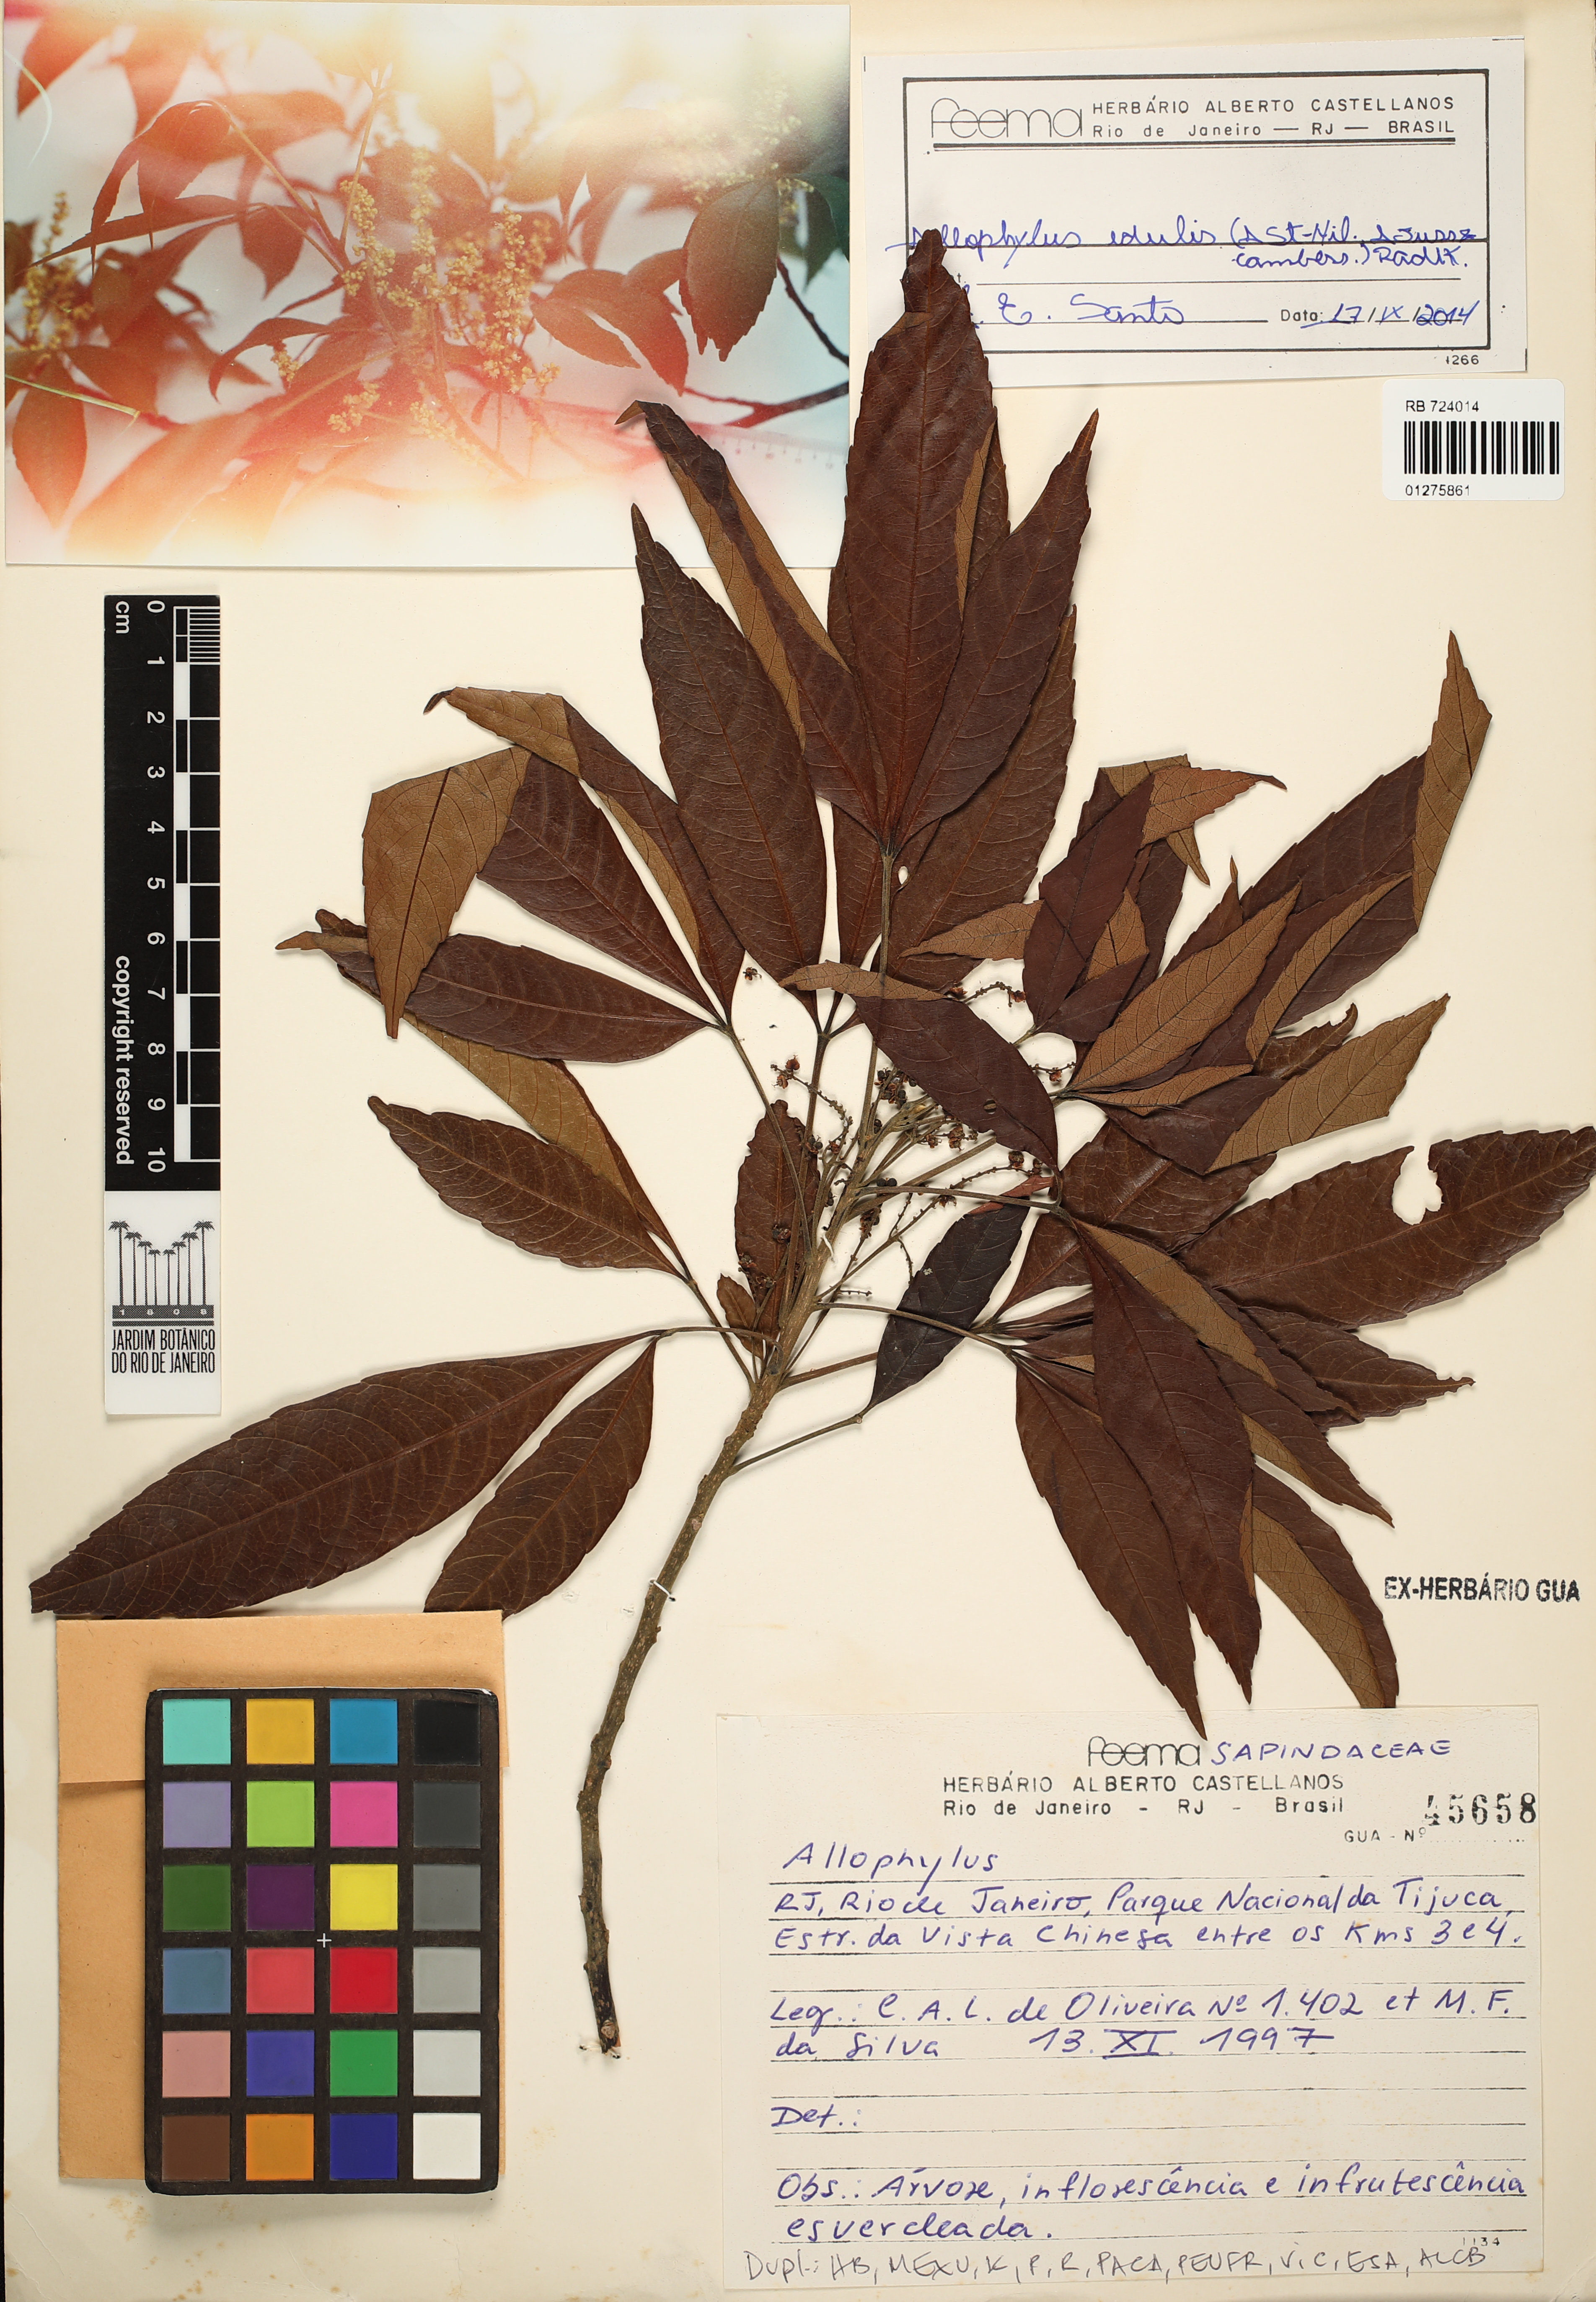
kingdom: Plantae
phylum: Tracheophyta
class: Magnoliopsida
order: Sapindales
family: Sapindaceae
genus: Allophylus
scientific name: Allophylus edulis
